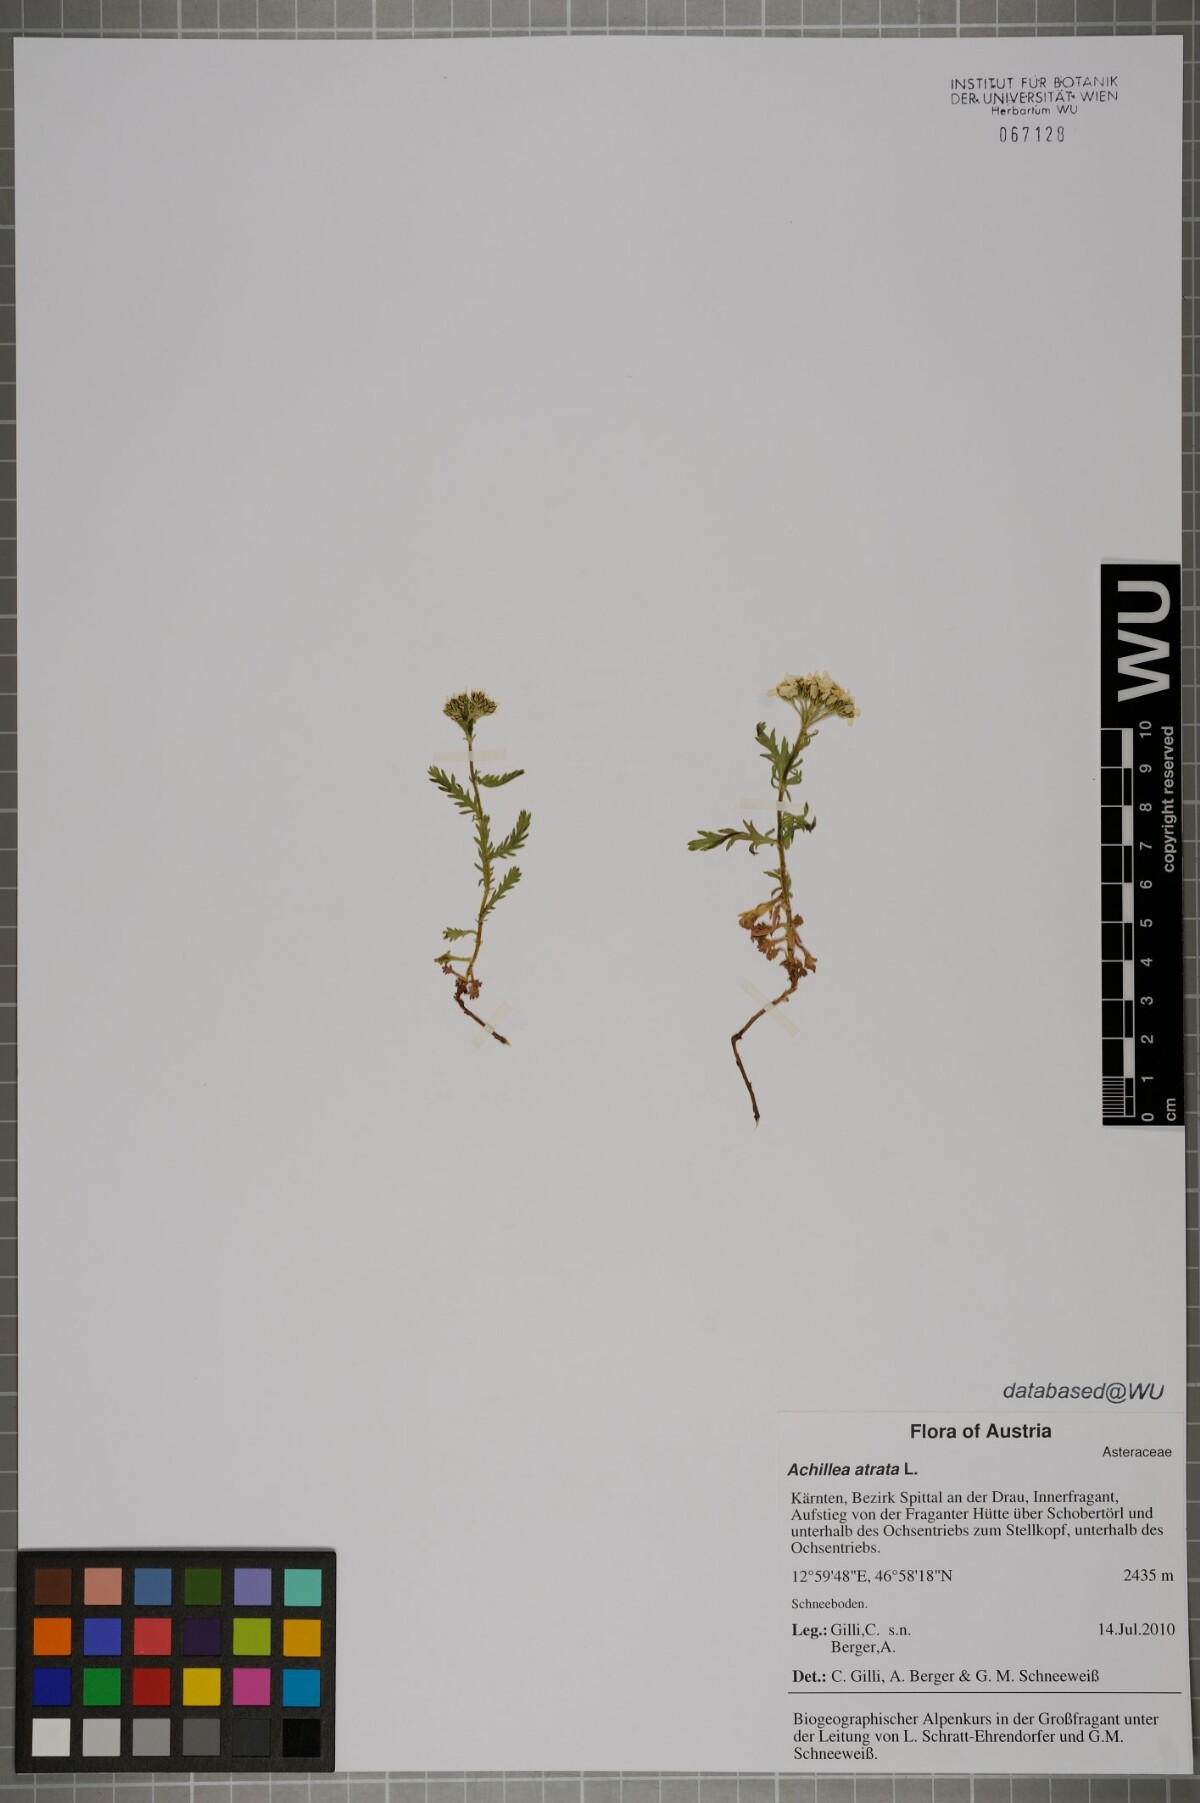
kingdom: Plantae
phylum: Tracheophyta
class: Magnoliopsida
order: Asterales
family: Asteraceae
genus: Achillea
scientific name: Achillea atrata
